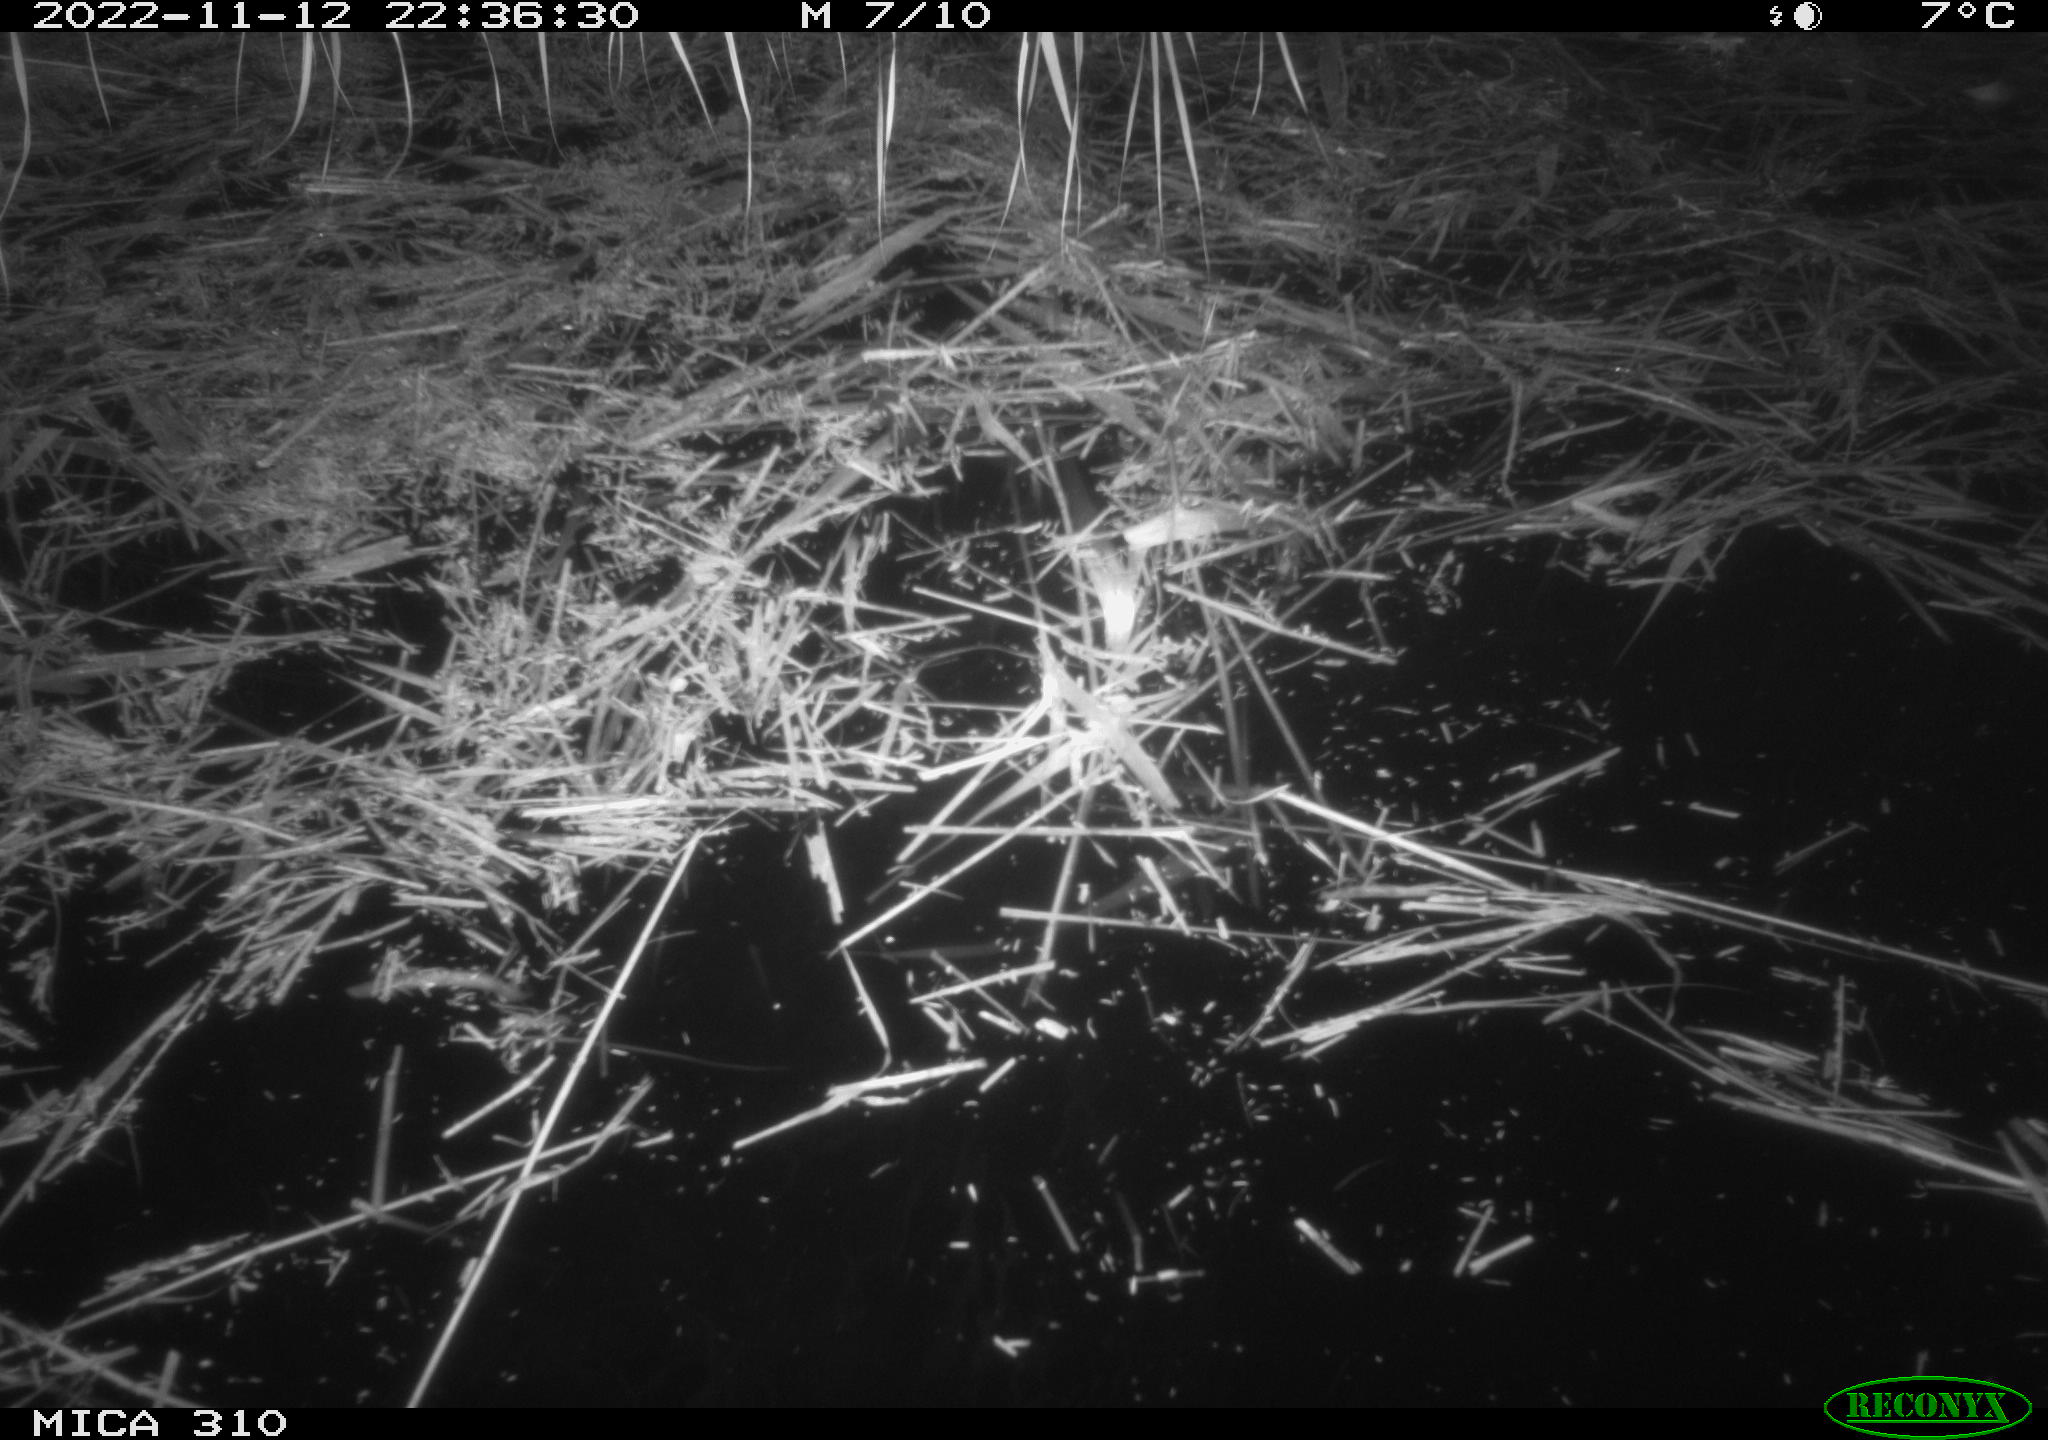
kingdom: Animalia
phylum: Chordata
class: Mammalia
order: Rodentia
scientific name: Rodentia
